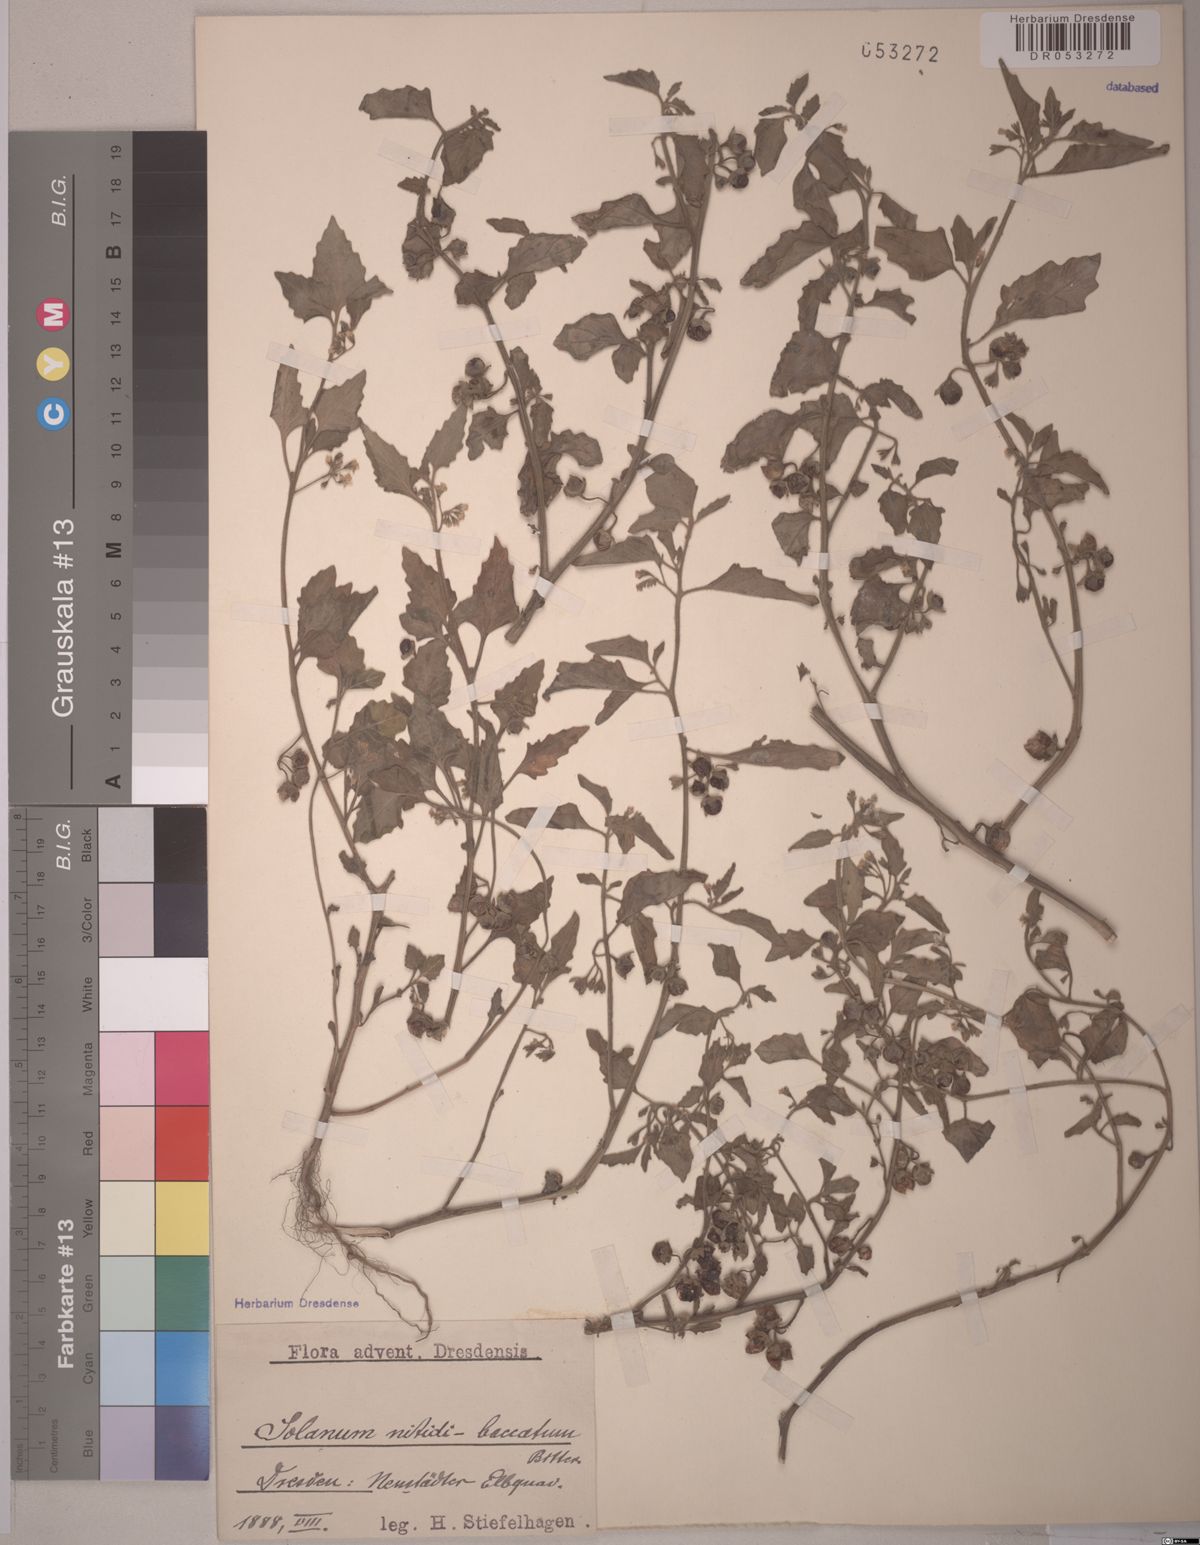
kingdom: Plantae
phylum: Tracheophyta
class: Magnoliopsida
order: Solanales
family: Solanaceae
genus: Solanum
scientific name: Solanum nitidibaccatum
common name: Hairy nightshade
